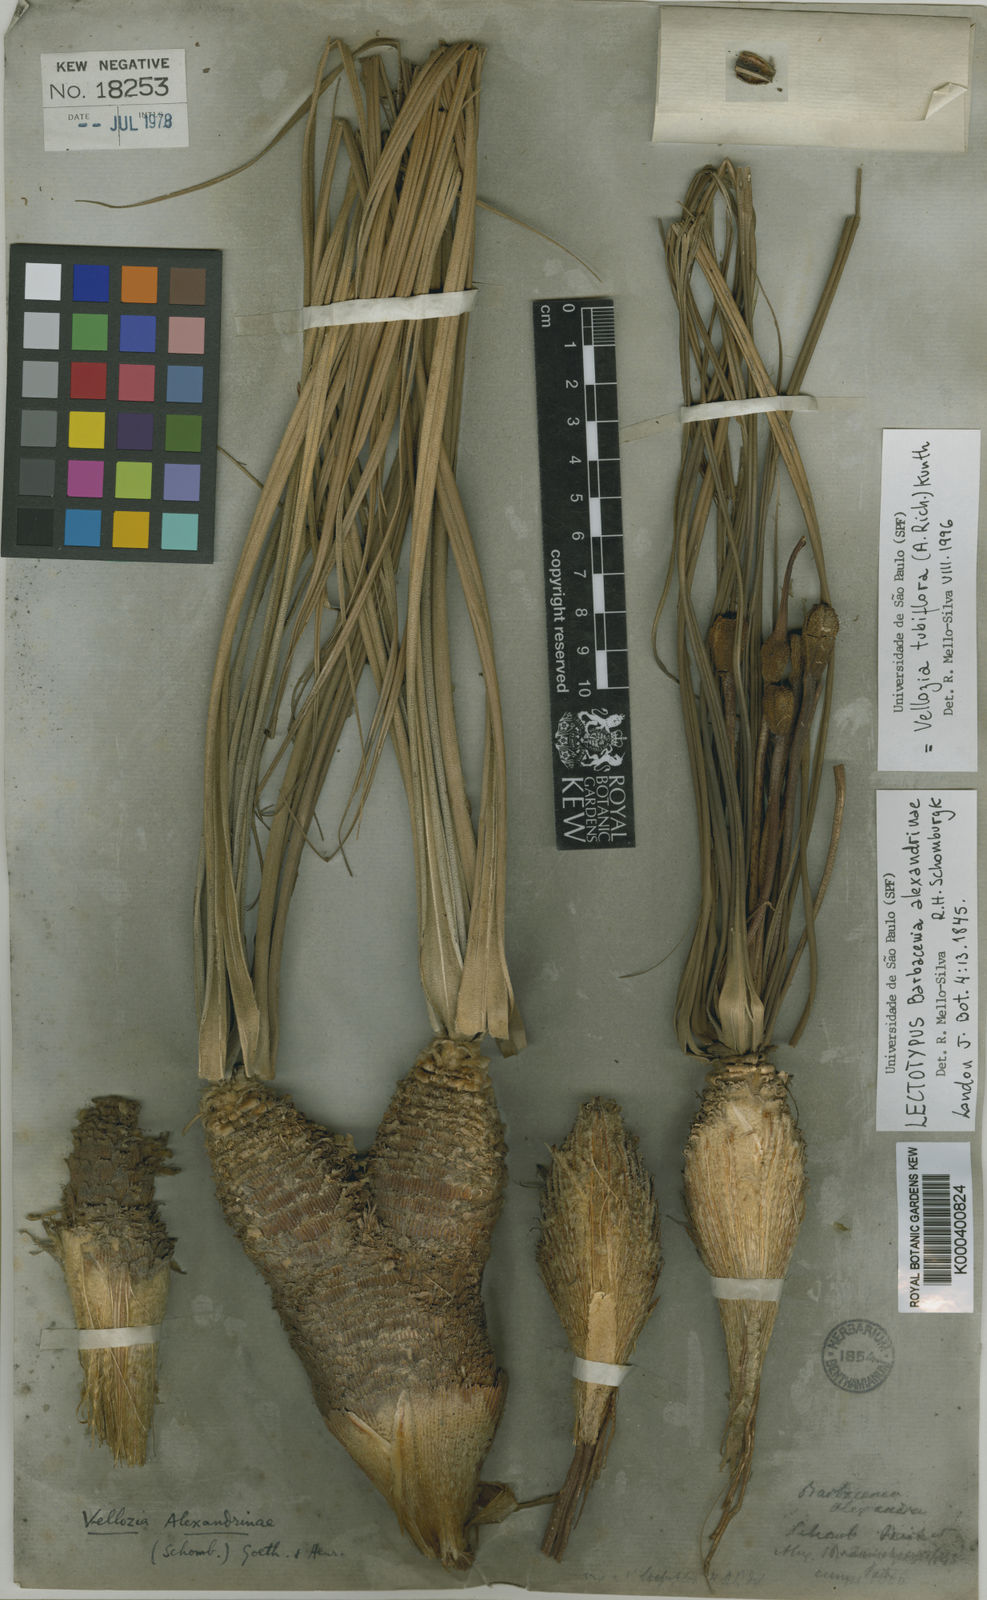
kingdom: Plantae
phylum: Tracheophyta
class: Liliopsida
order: Pandanales
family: Velloziaceae
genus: Vellozia
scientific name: Vellozia tubiflora
